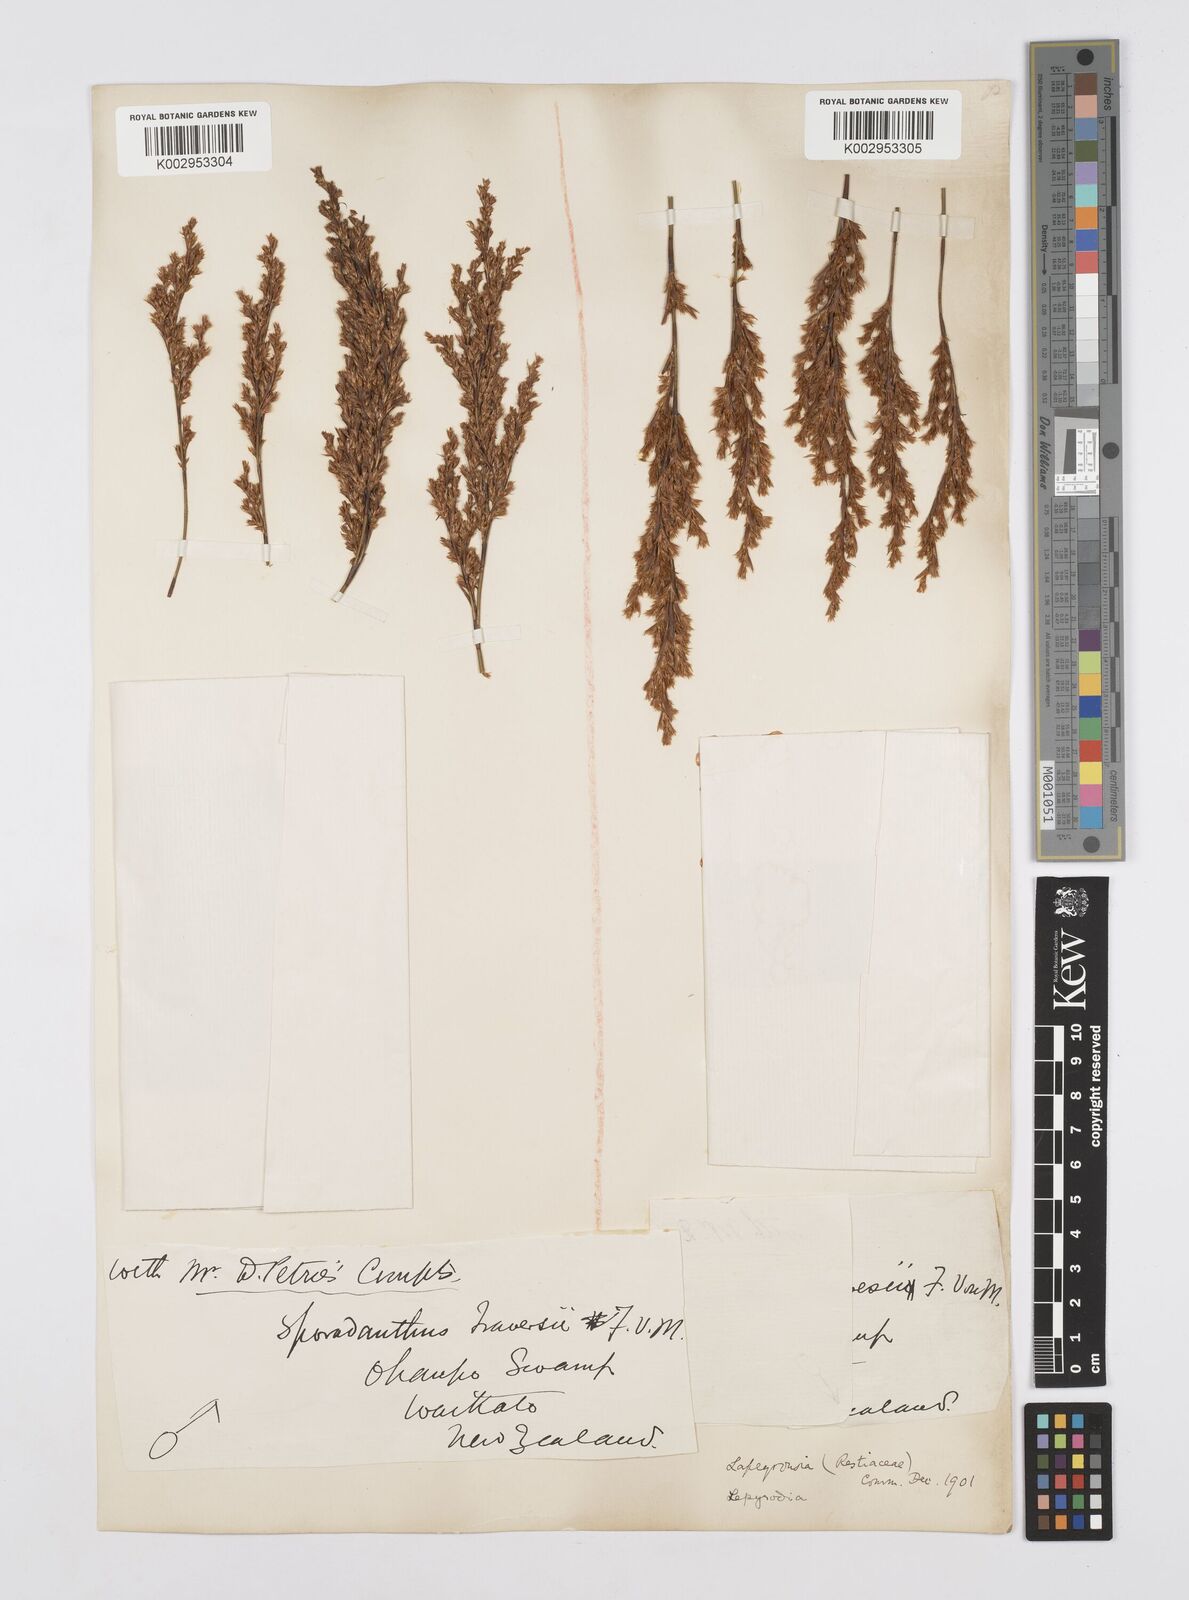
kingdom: Plantae
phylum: Tracheophyta
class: Liliopsida
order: Poales
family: Restionaceae
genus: Sporadanthus
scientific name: Sporadanthus traversii
